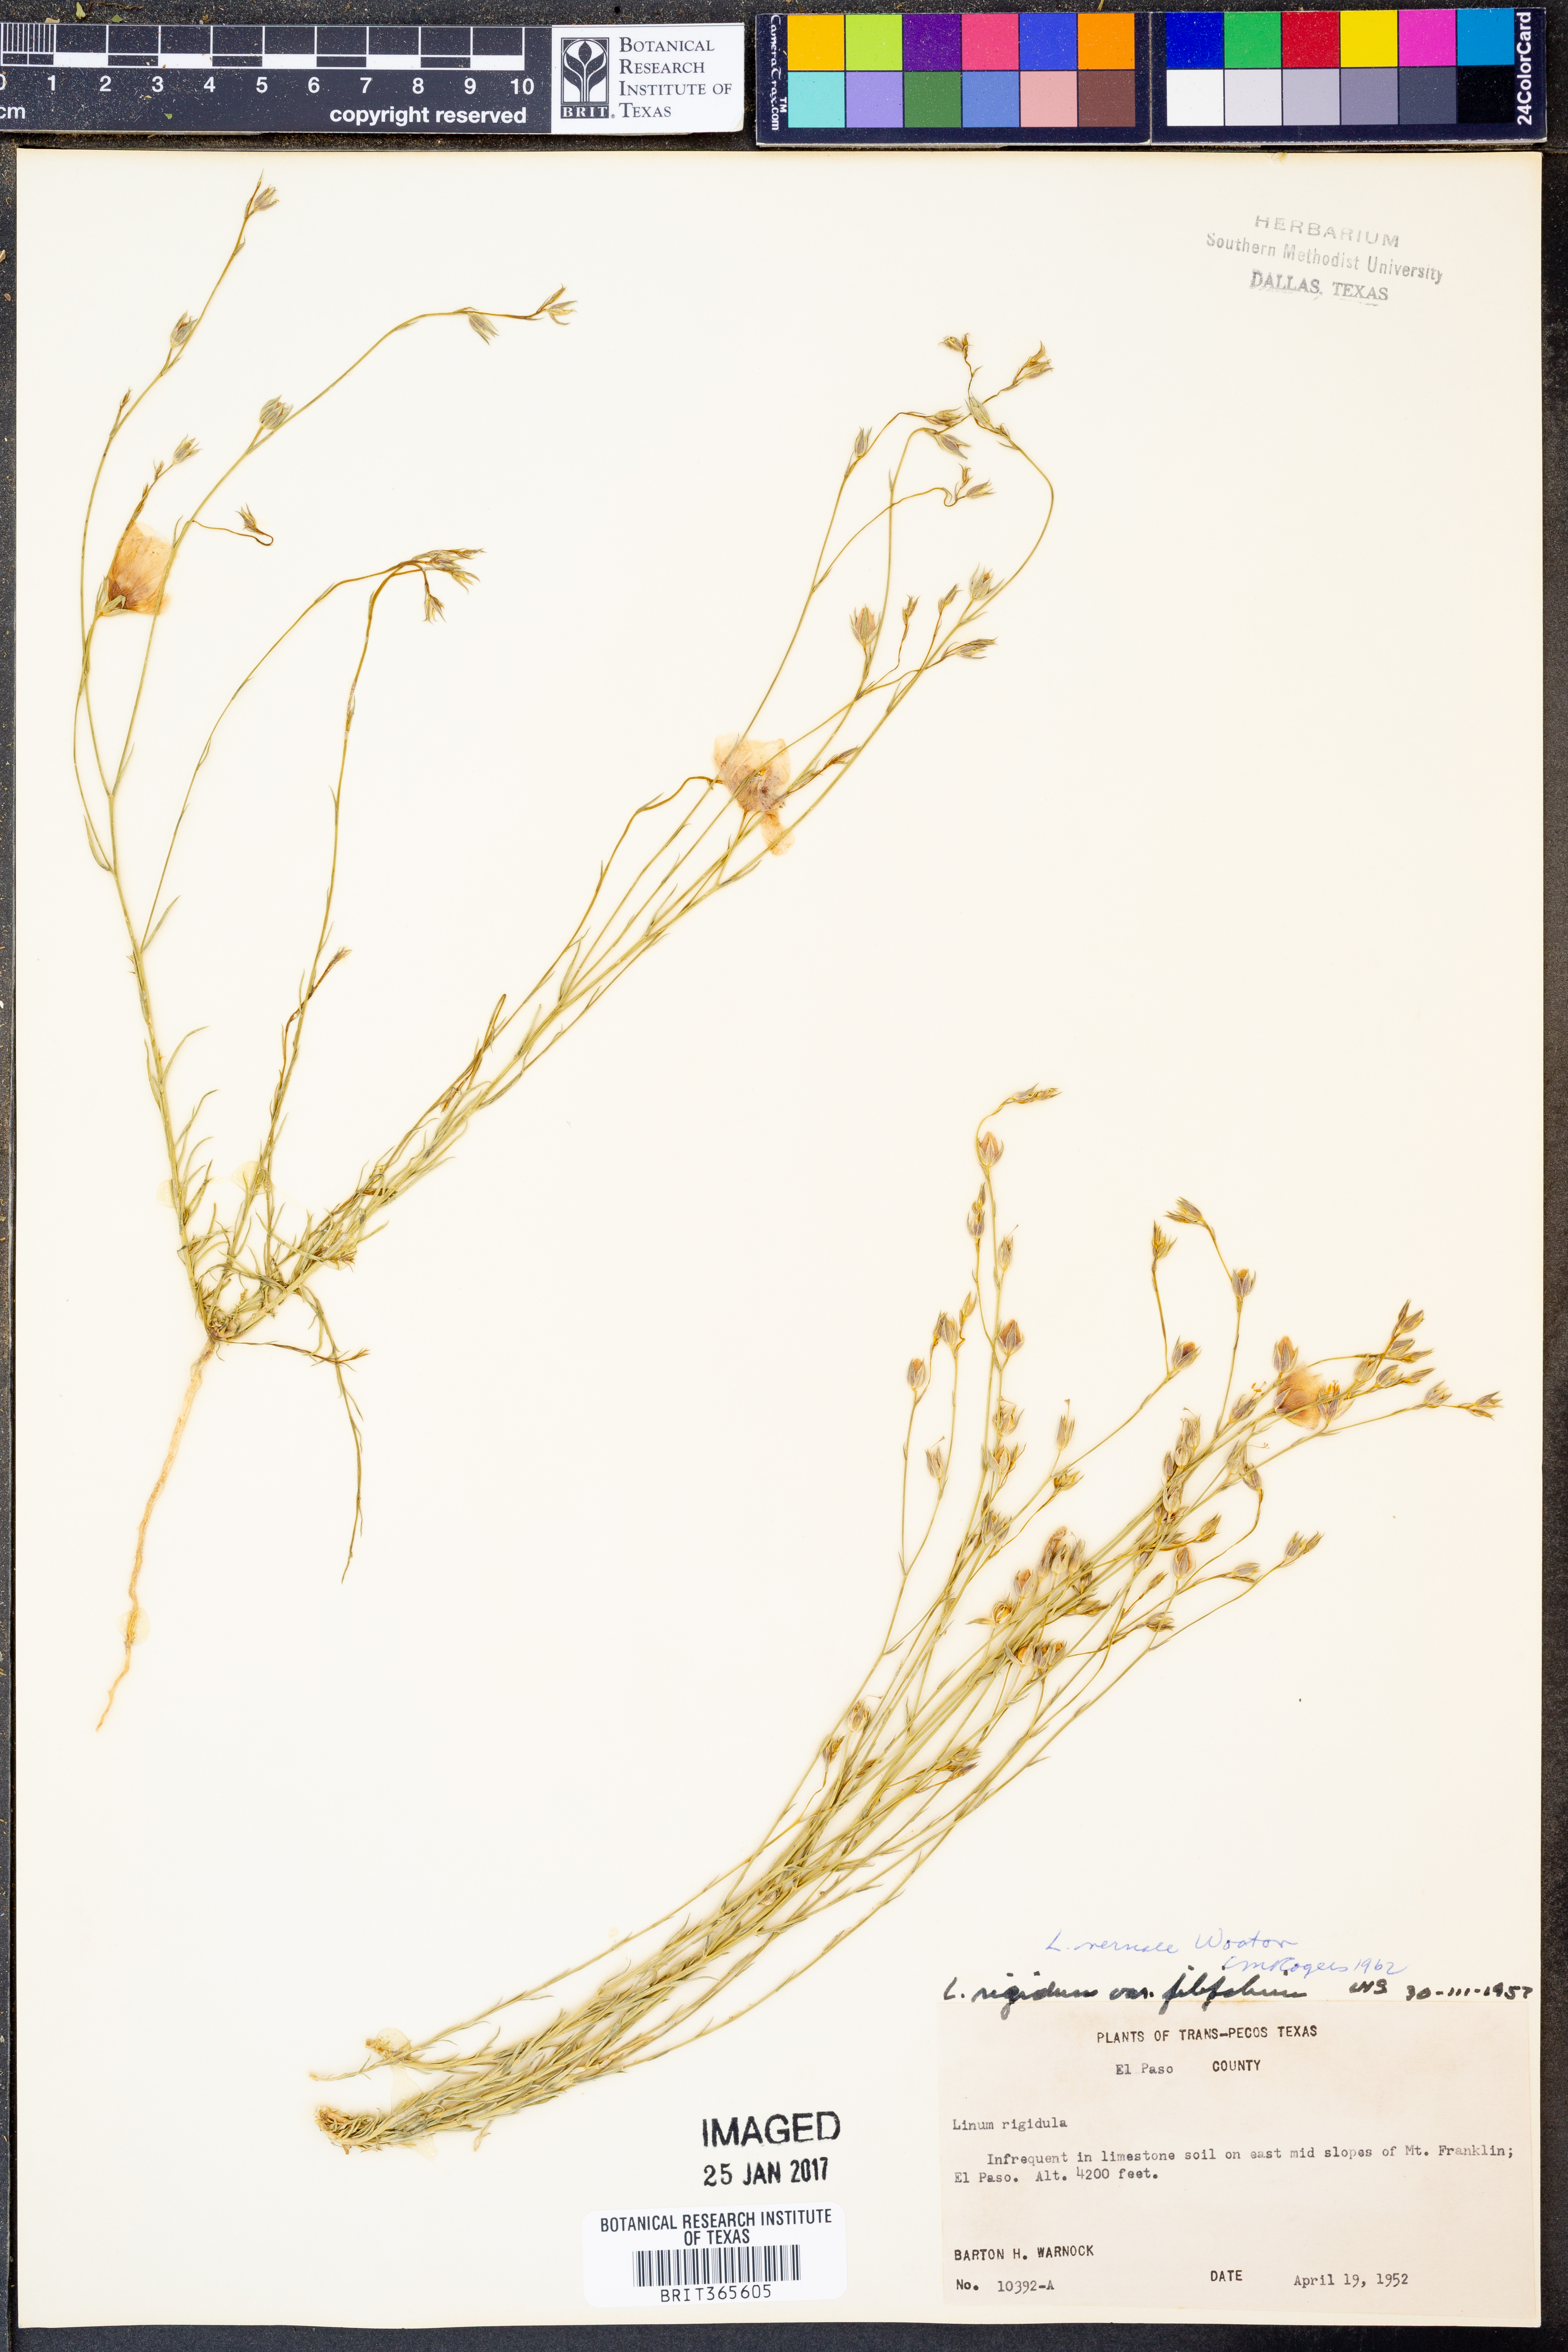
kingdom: Plantae
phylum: Tracheophyta
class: Magnoliopsida
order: Malpighiales
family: Linaceae
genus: Linum
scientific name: Linum vernale
